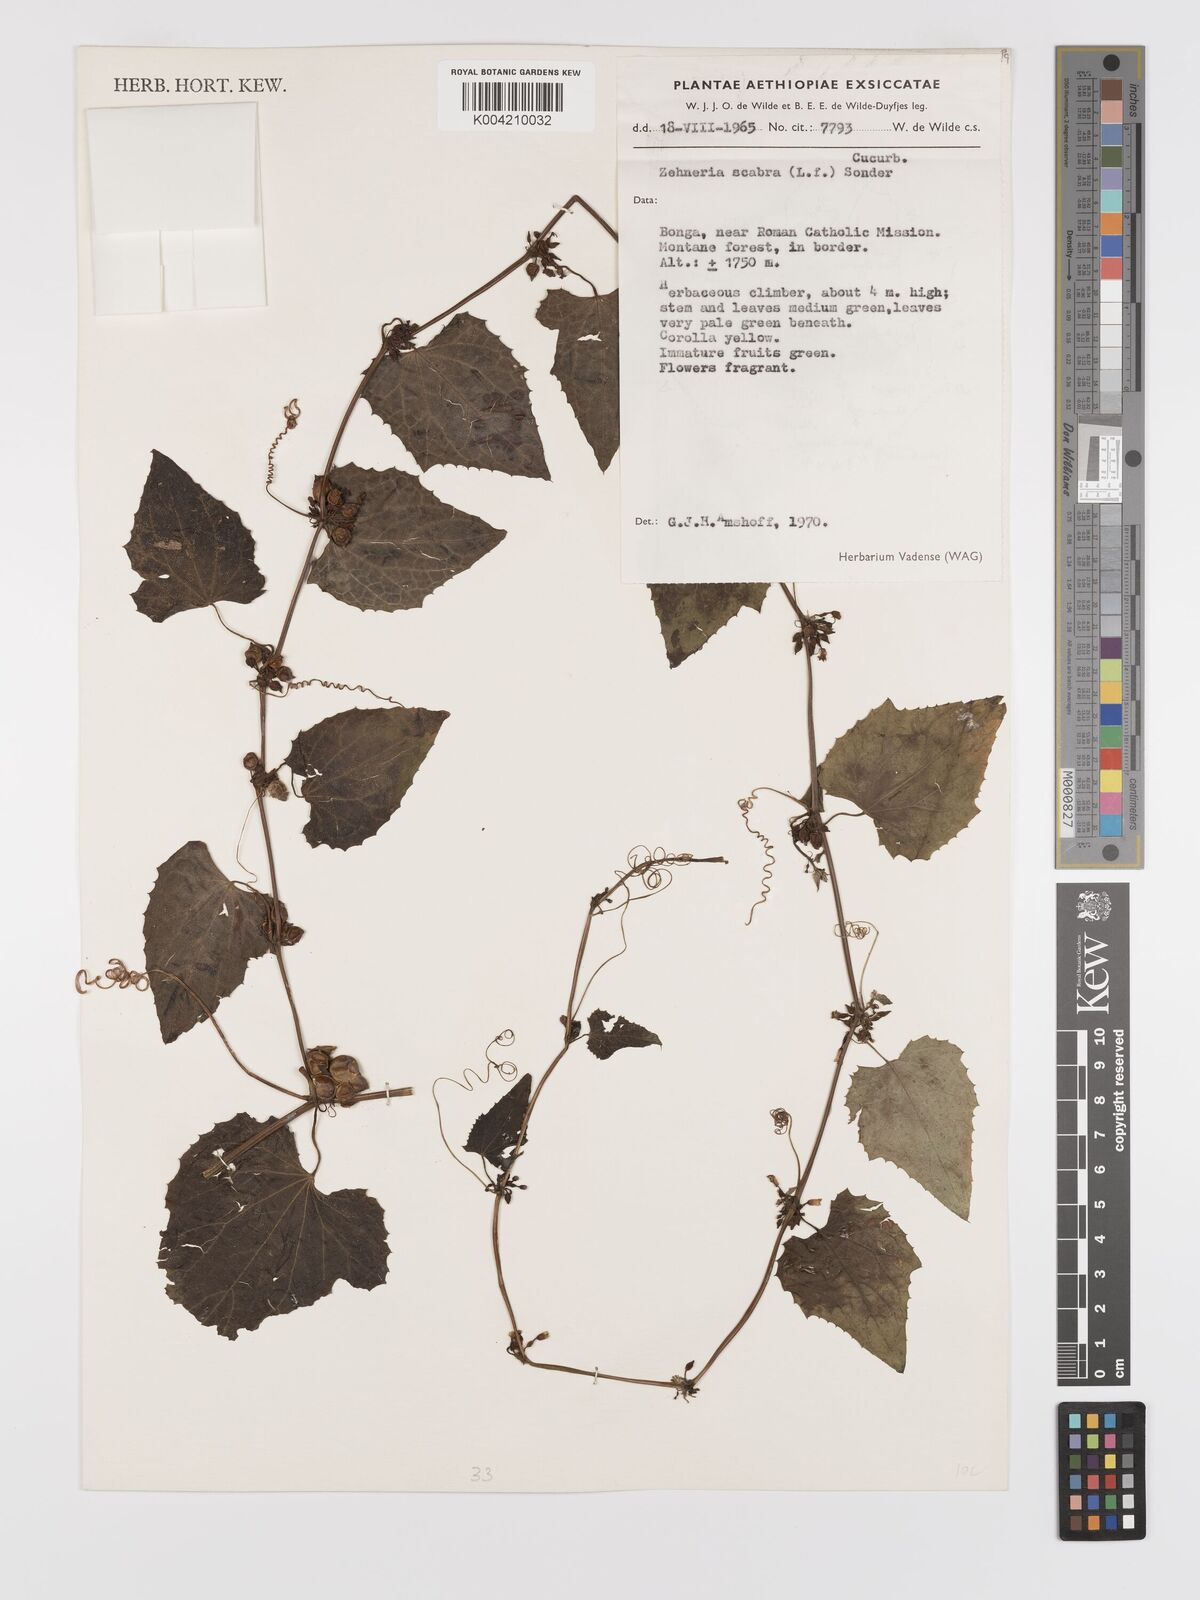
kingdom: Plantae
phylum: Tracheophyta
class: Magnoliopsida
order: Cucurbitales
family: Cucurbitaceae
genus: Zehneria
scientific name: Zehneria scabra
